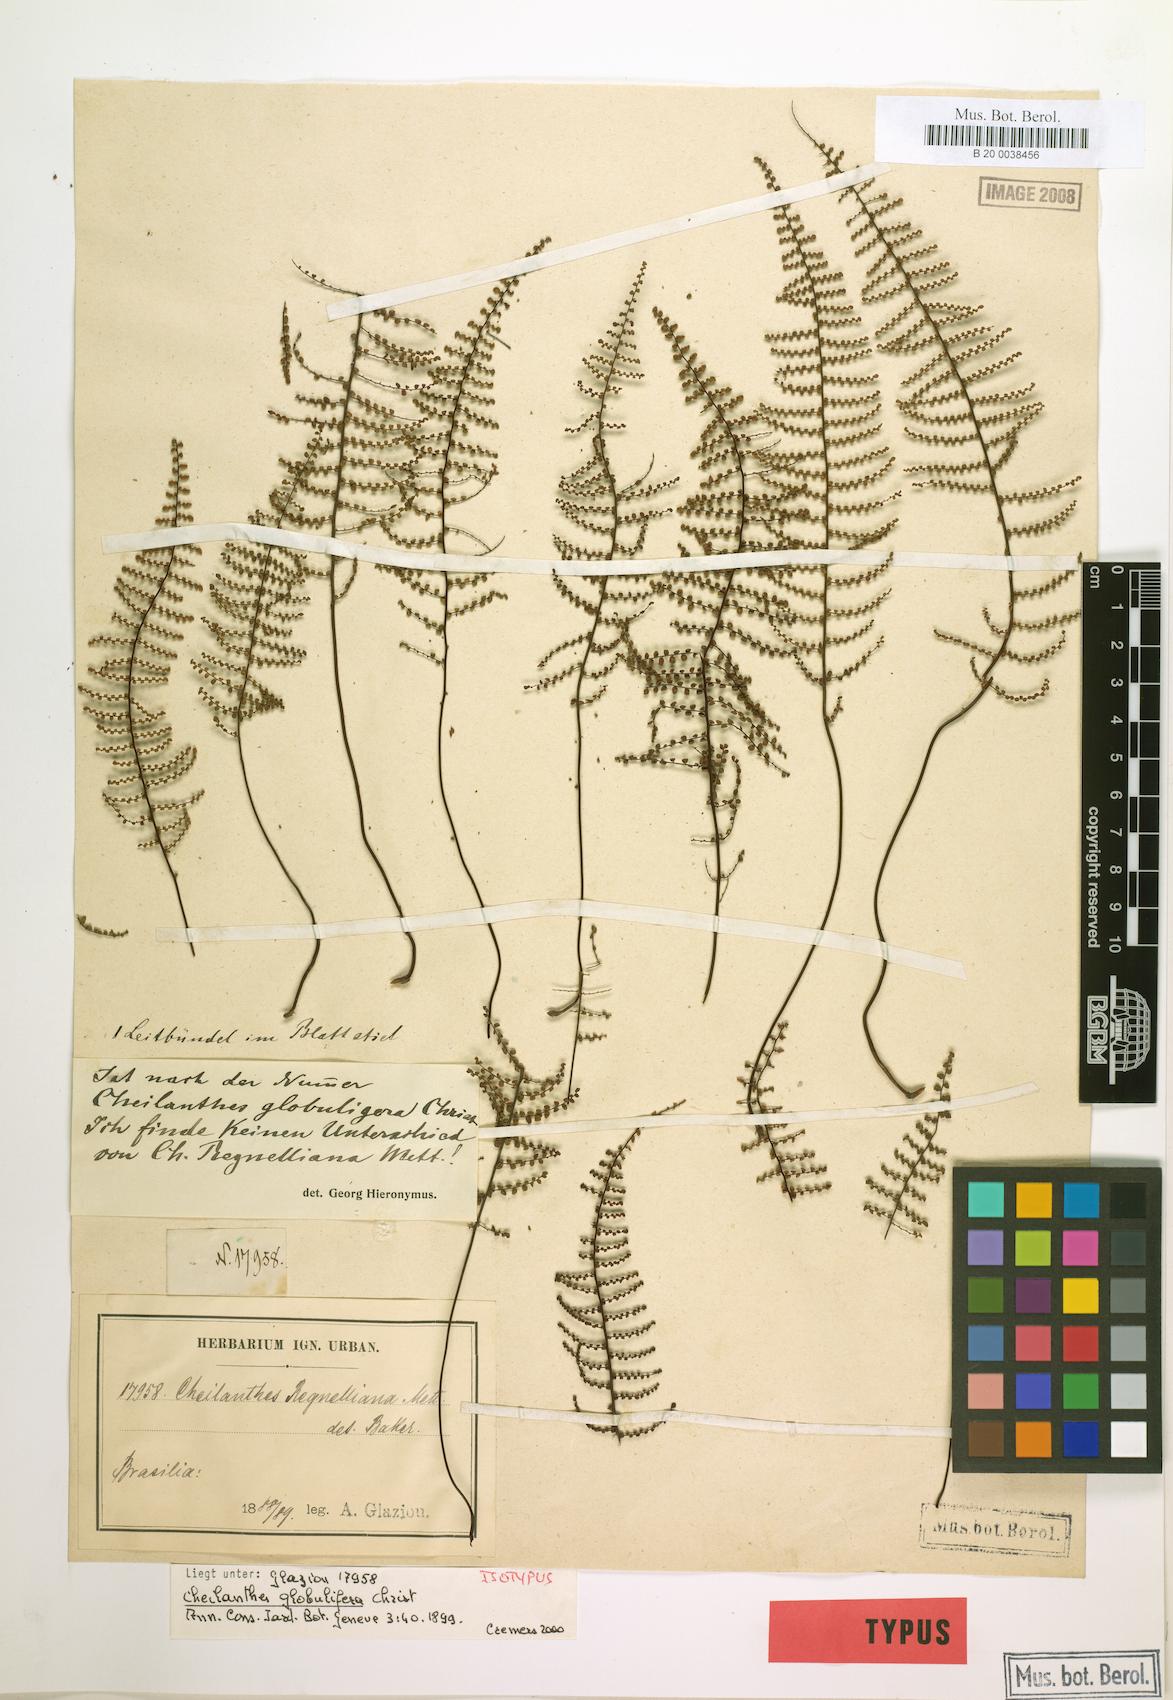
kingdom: Plantae
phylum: Tracheophyta
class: Polypodiopsida
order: Polypodiales
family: Pteridaceae
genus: Pellaea
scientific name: Pellaea regnelliana
